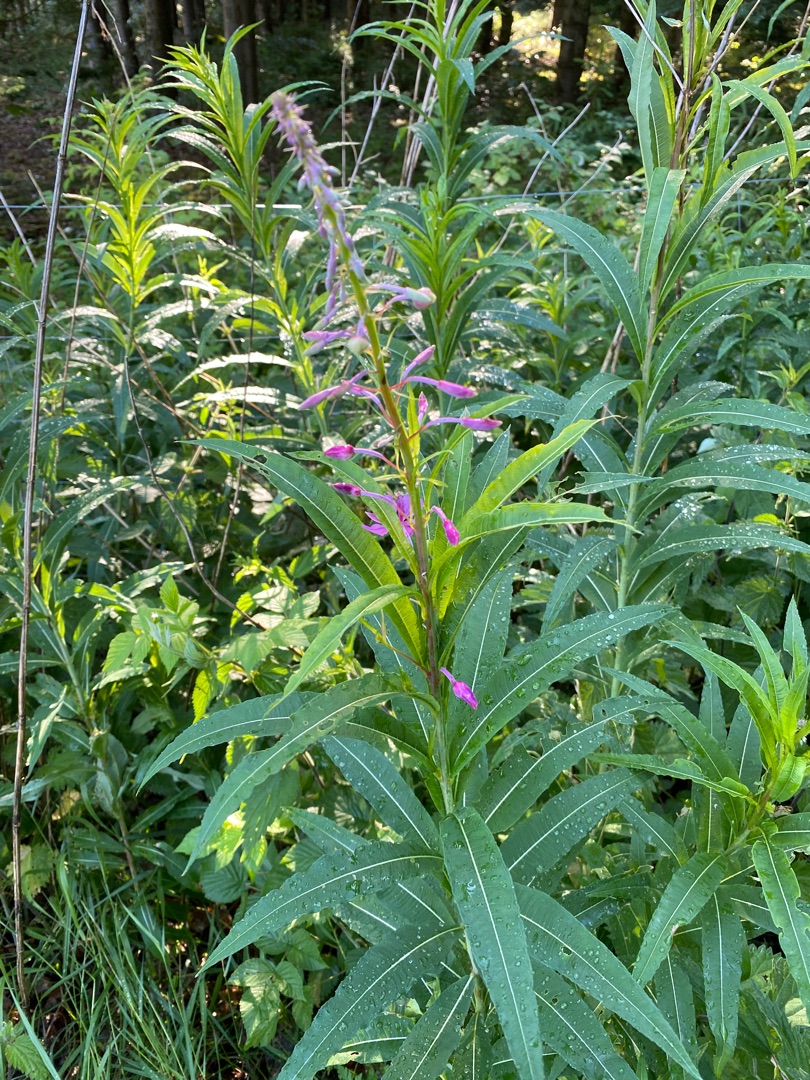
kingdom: Plantae
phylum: Tracheophyta
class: Magnoliopsida
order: Myrtales
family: Onagraceae
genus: Chamaenerion
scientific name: Chamaenerion angustifolium
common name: Gederams
